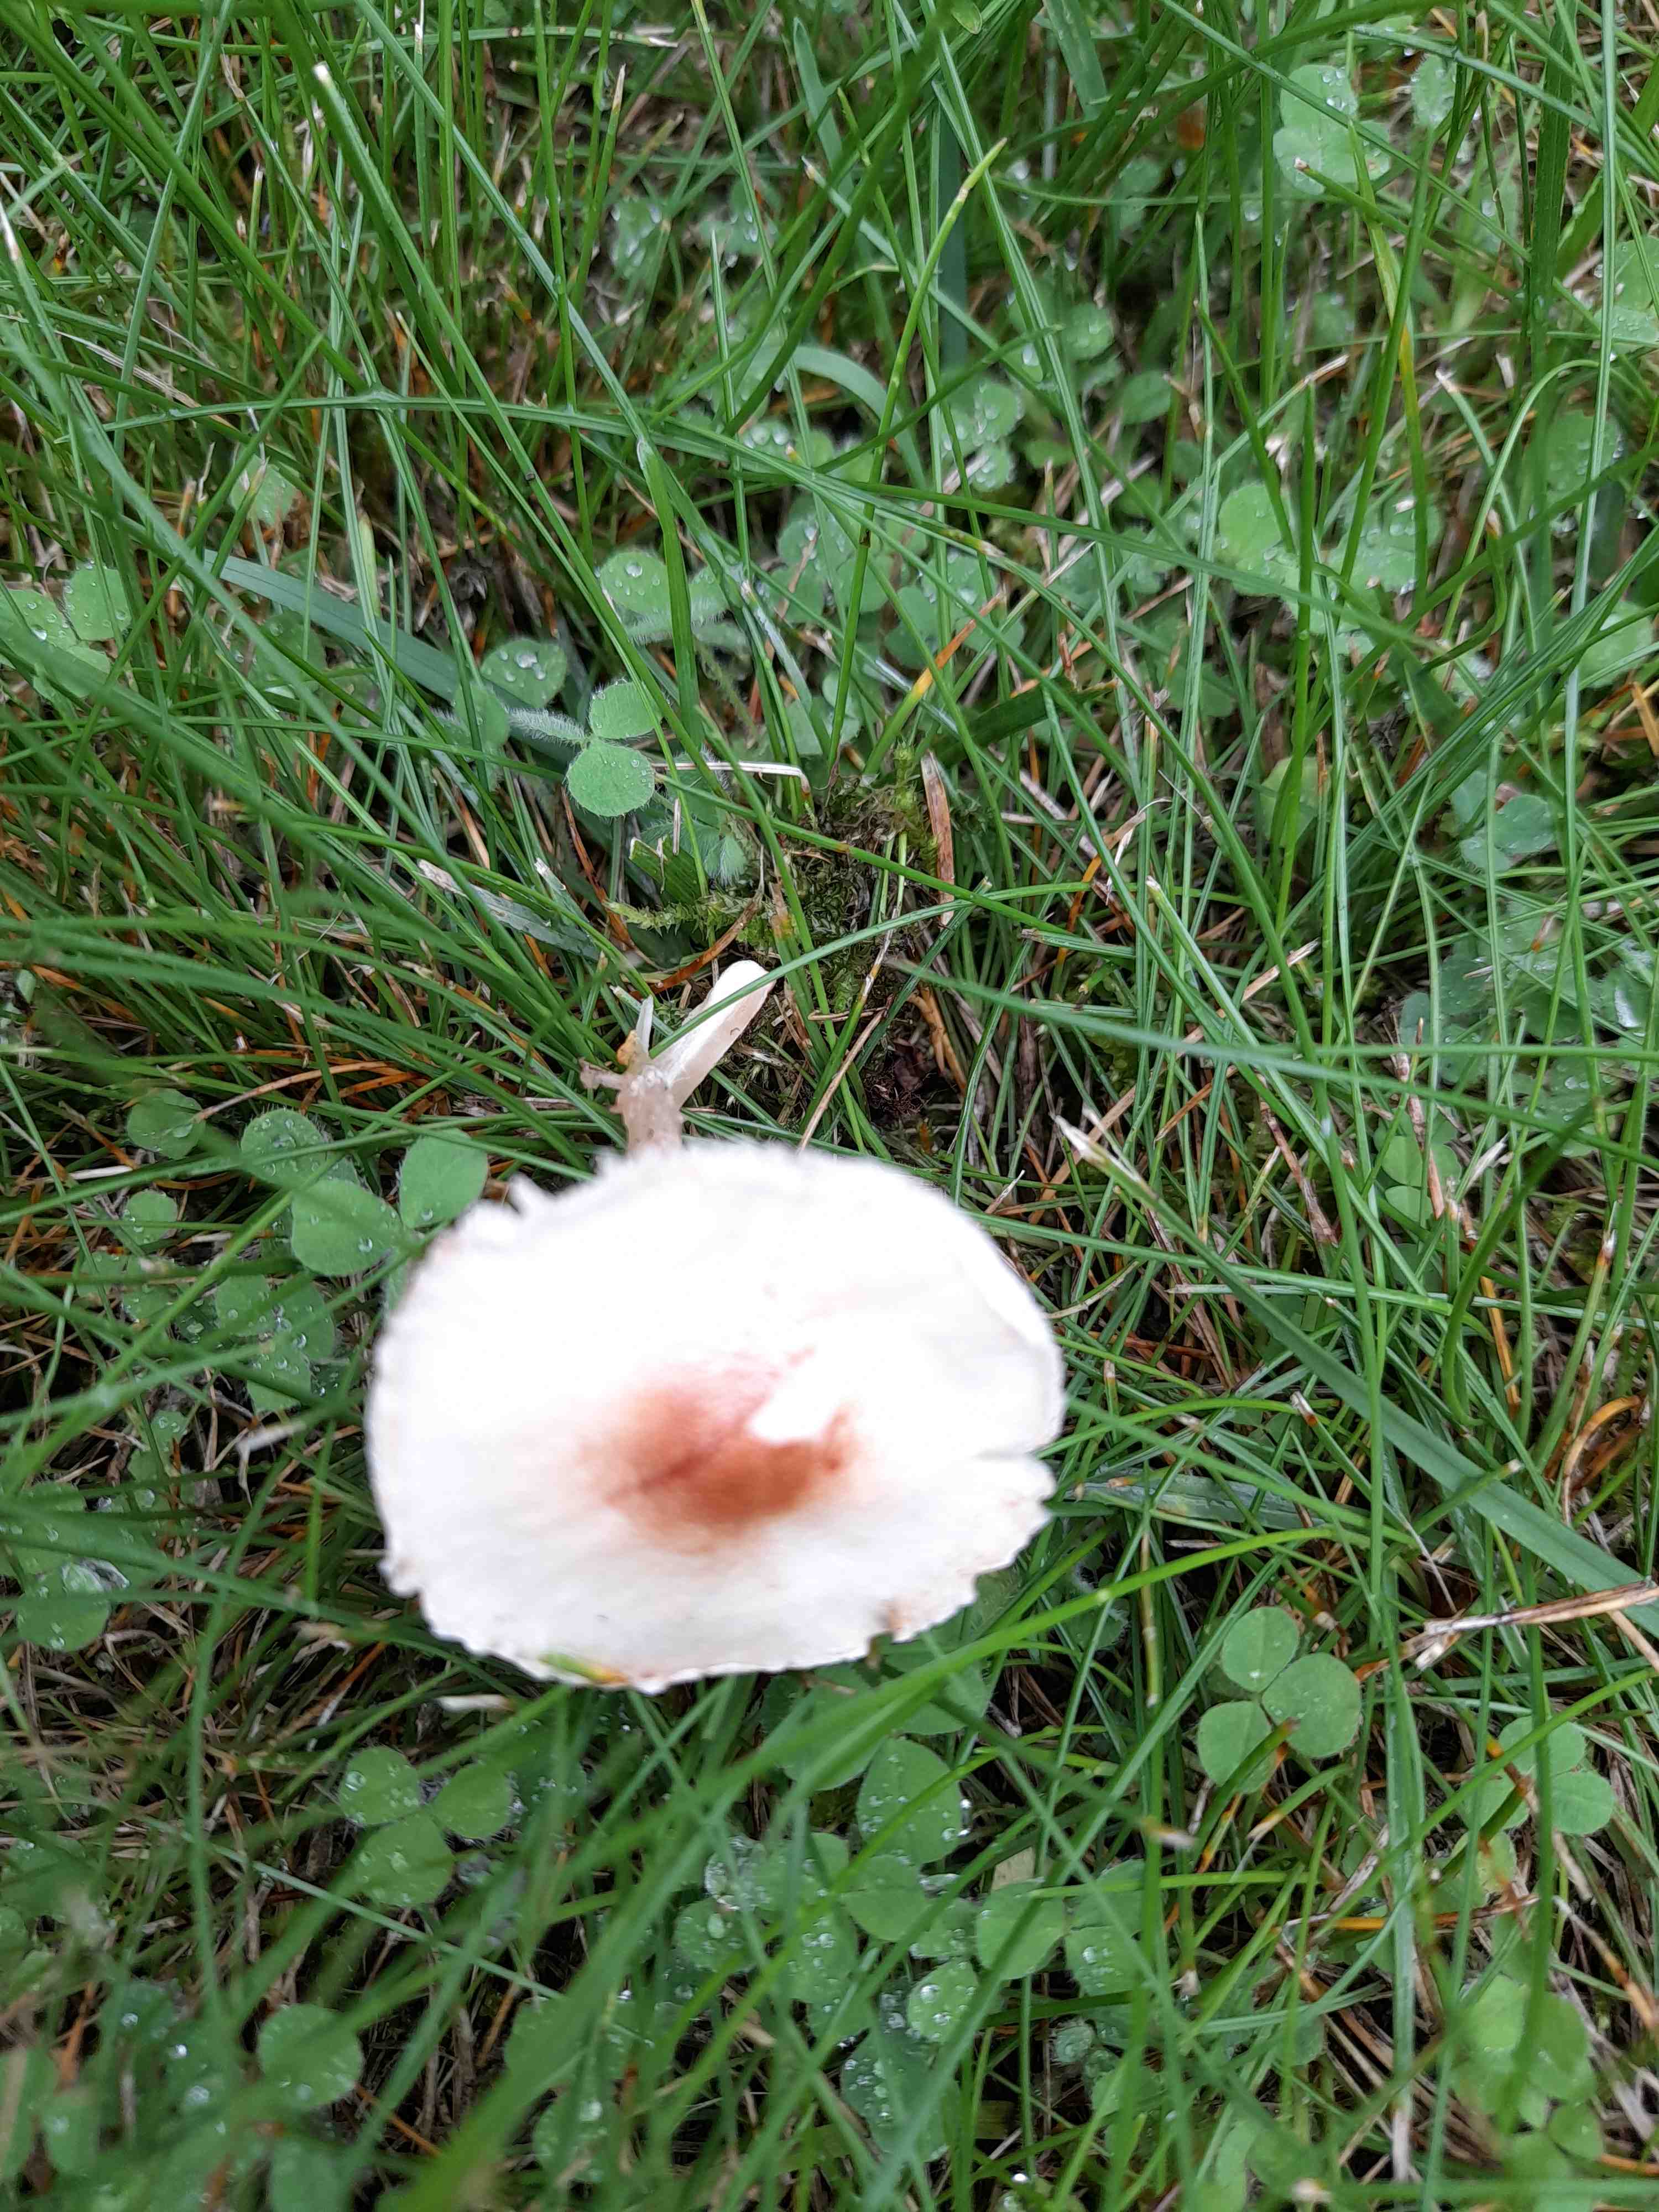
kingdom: Fungi
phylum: Basidiomycota
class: Agaricomycetes
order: Agaricales
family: Agaricaceae
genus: Lepiota
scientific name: Lepiota cristata
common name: stinkende parasolhat
